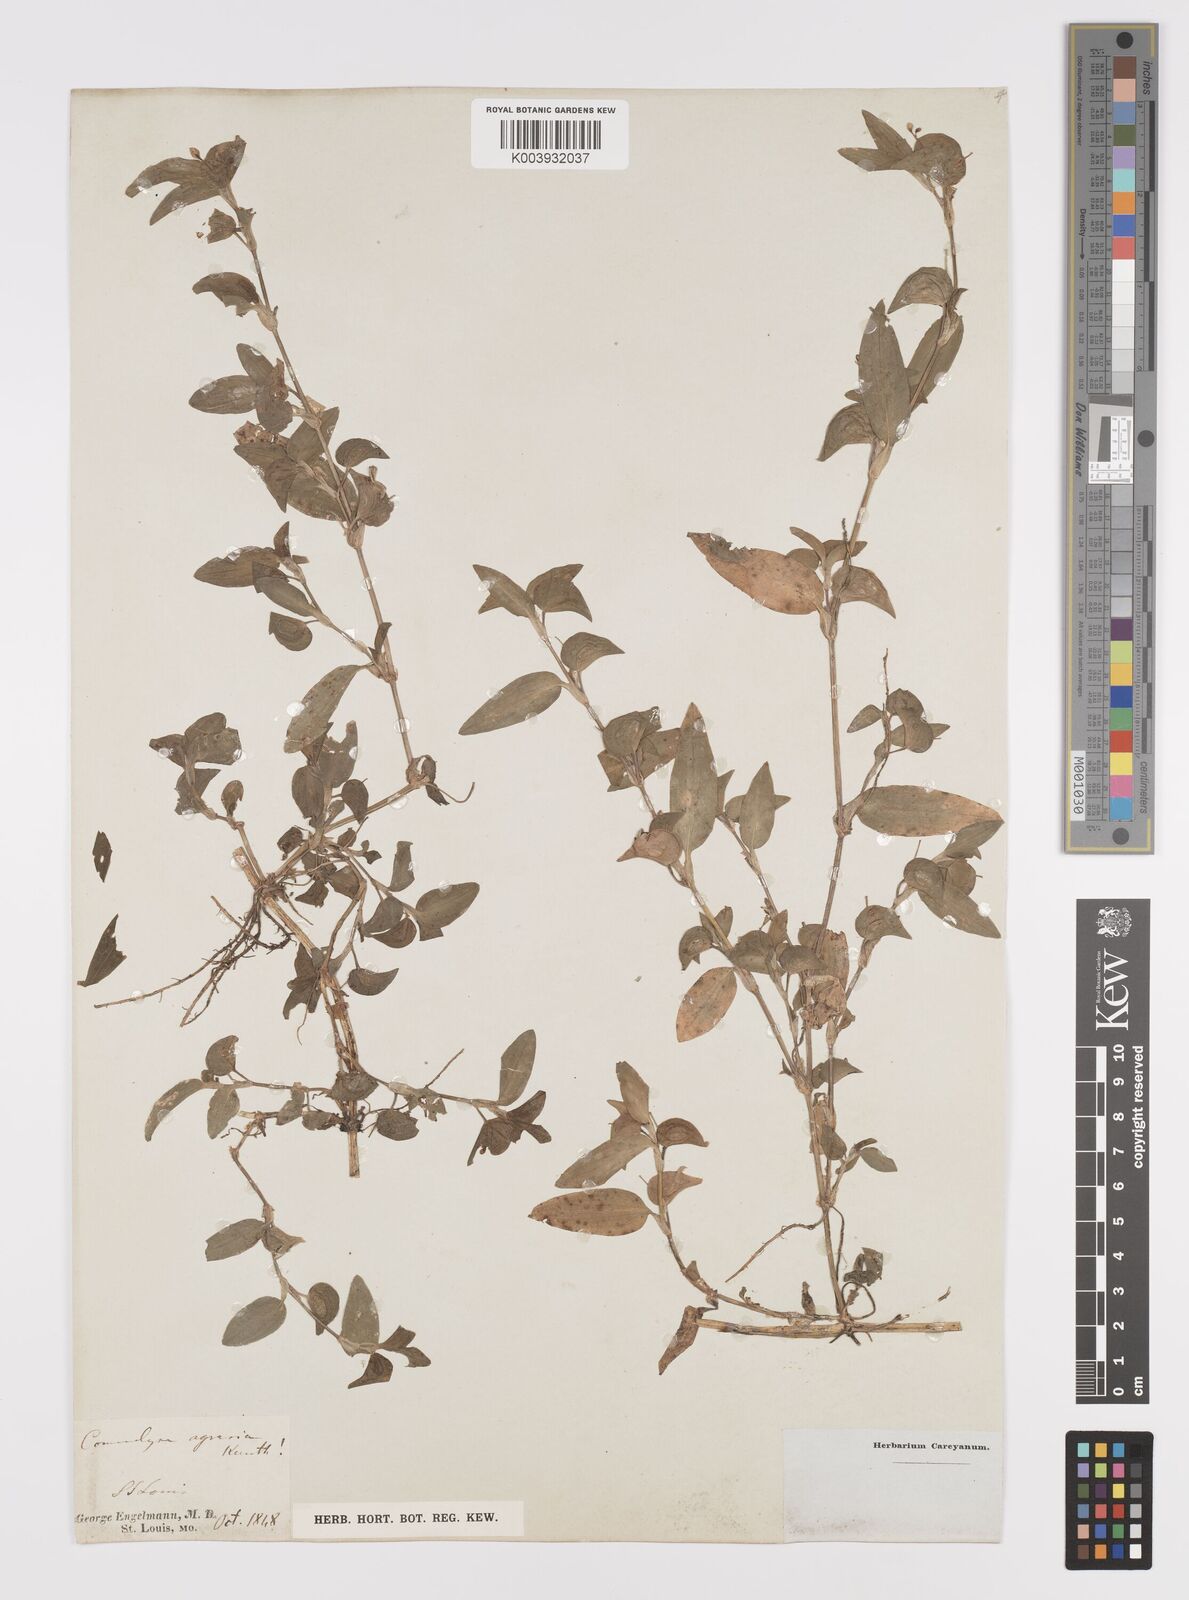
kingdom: Plantae
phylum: Tracheophyta
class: Liliopsida
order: Commelinales
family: Commelinaceae
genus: Commelina
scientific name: Commelina diffusa
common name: Climbing dayflower
